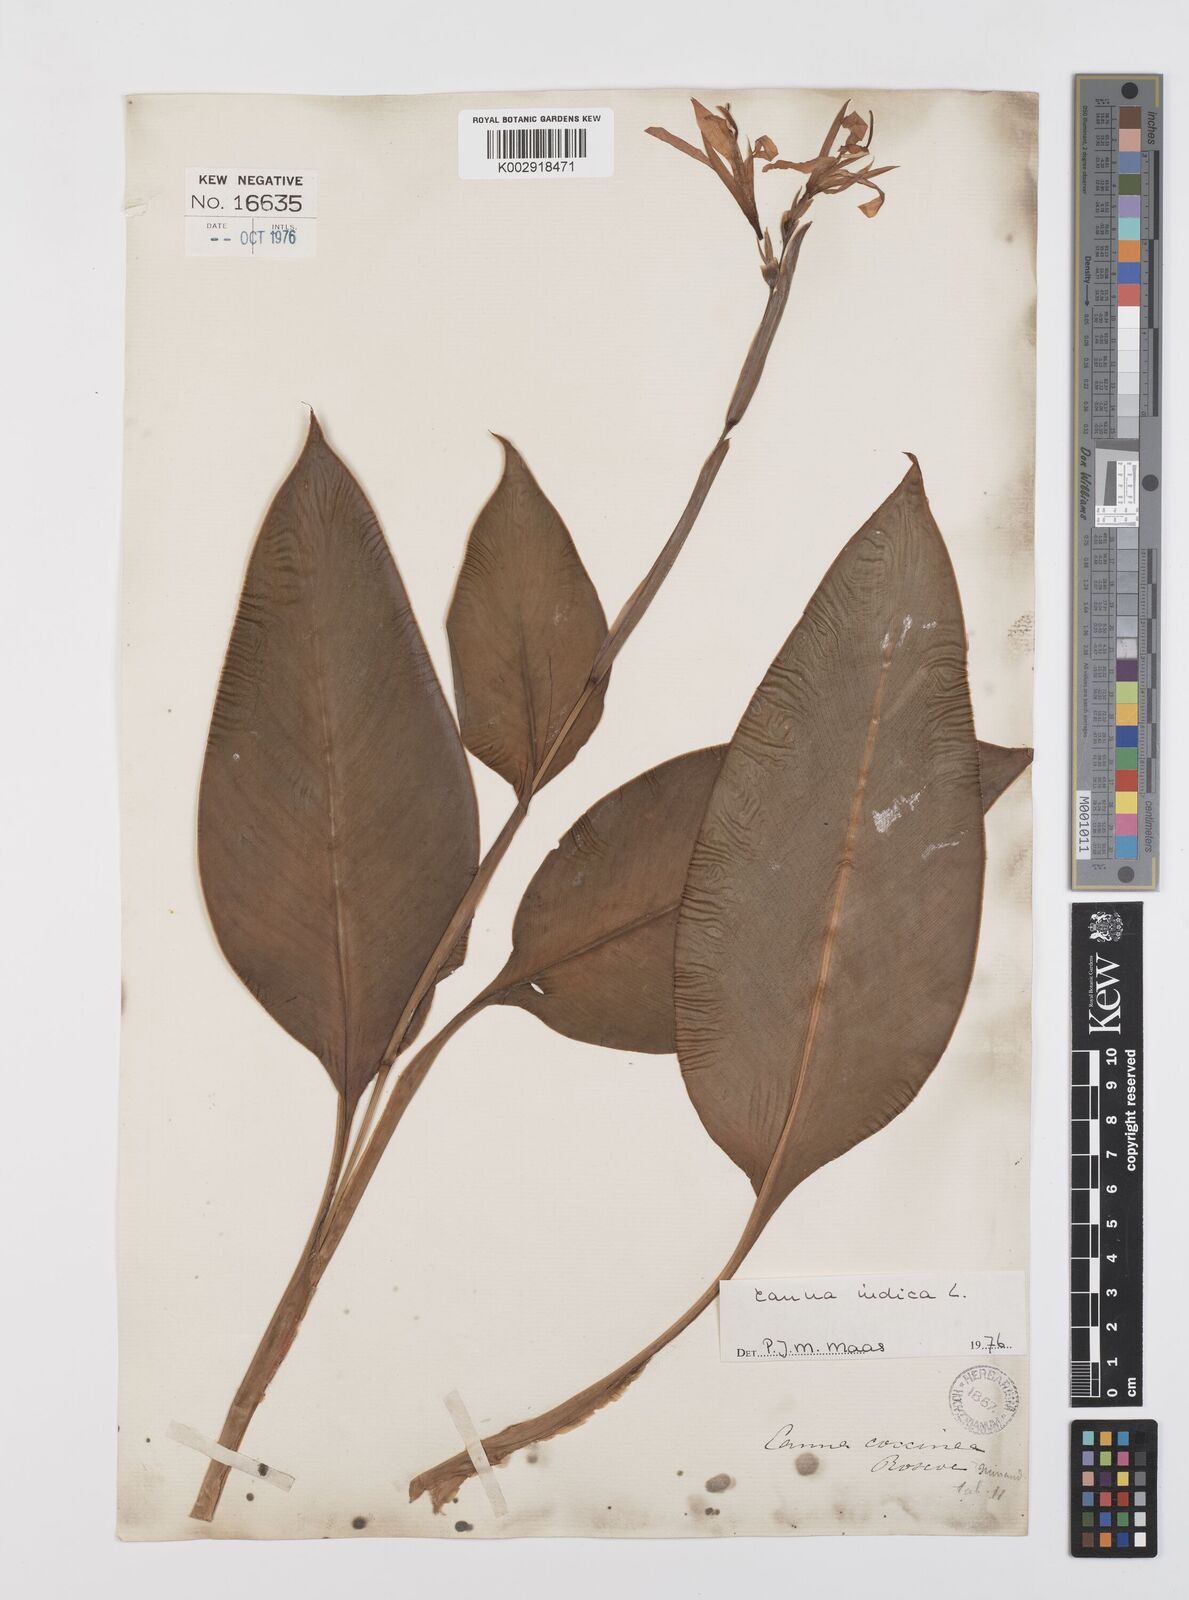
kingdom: Plantae
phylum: Tracheophyta
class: Liliopsida
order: Zingiberales
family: Cannaceae
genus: Canna
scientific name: Canna indica
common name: Indian shot
